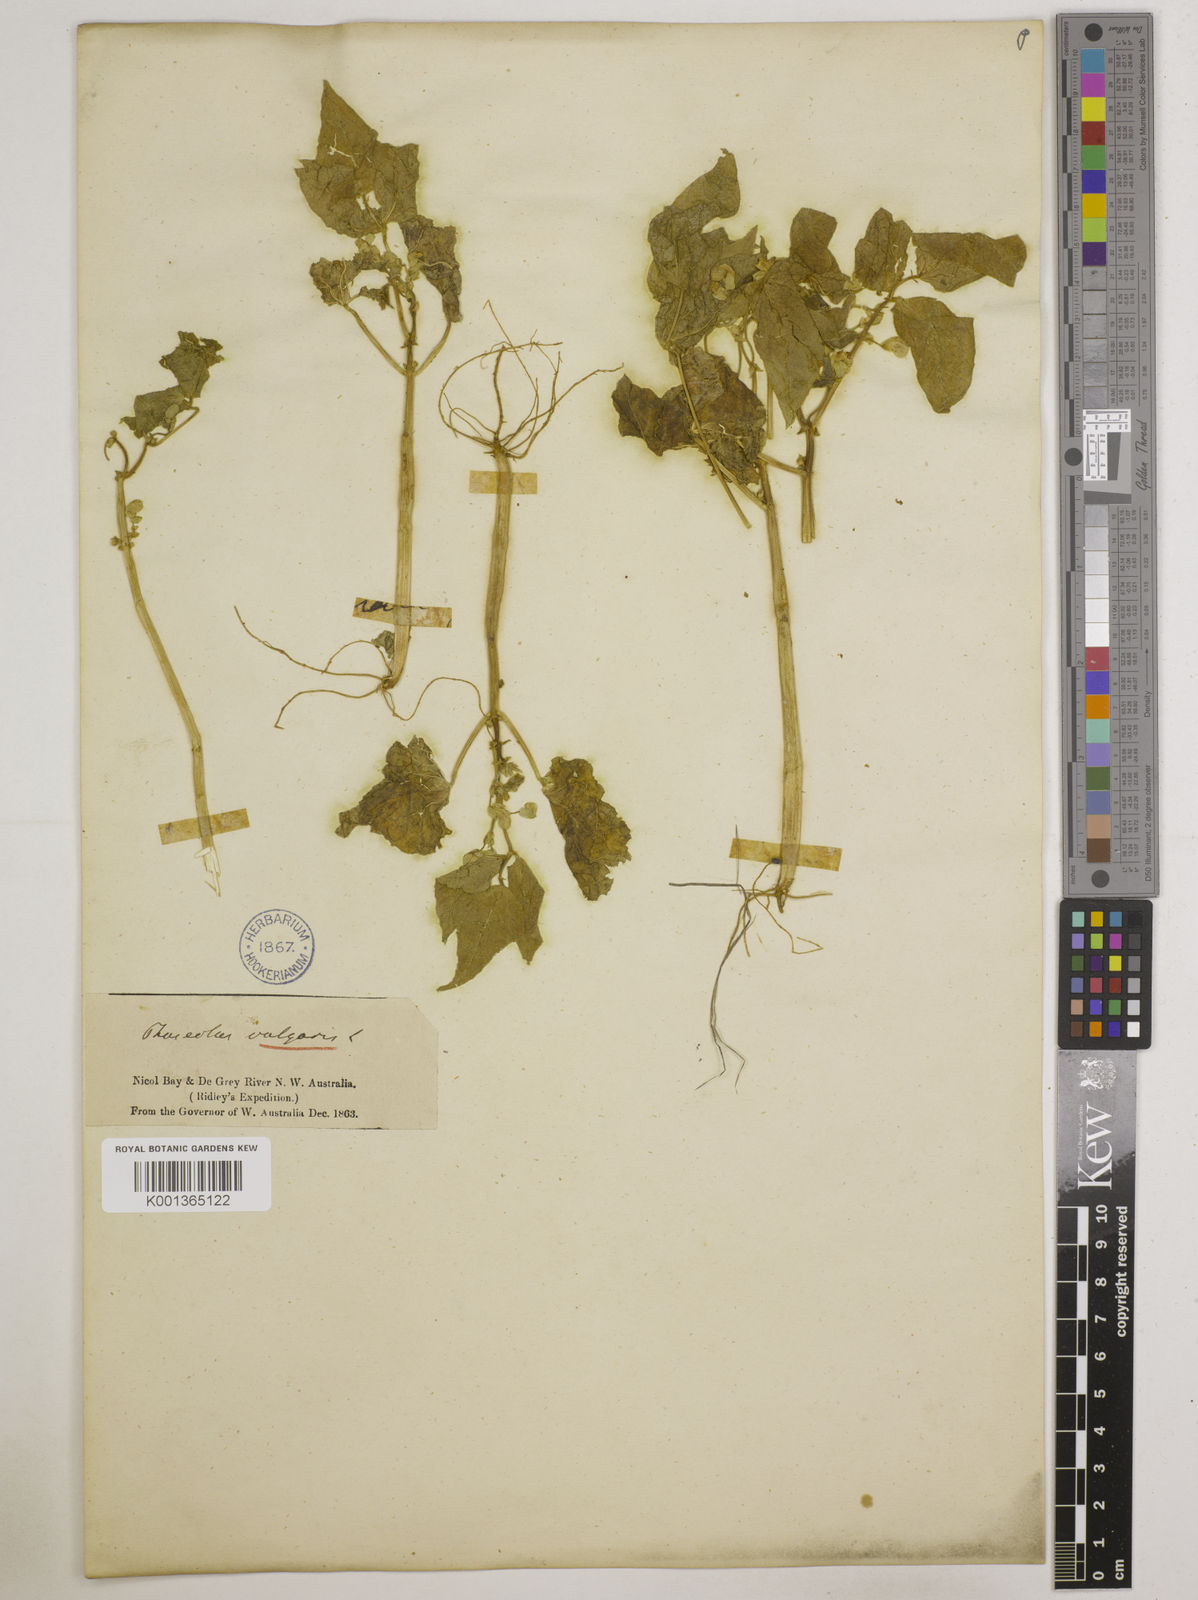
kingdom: Plantae
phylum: Tracheophyta
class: Magnoliopsida
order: Fabales
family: Fabaceae
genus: Phaseolus
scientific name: Phaseolus vulgaris
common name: Bean
